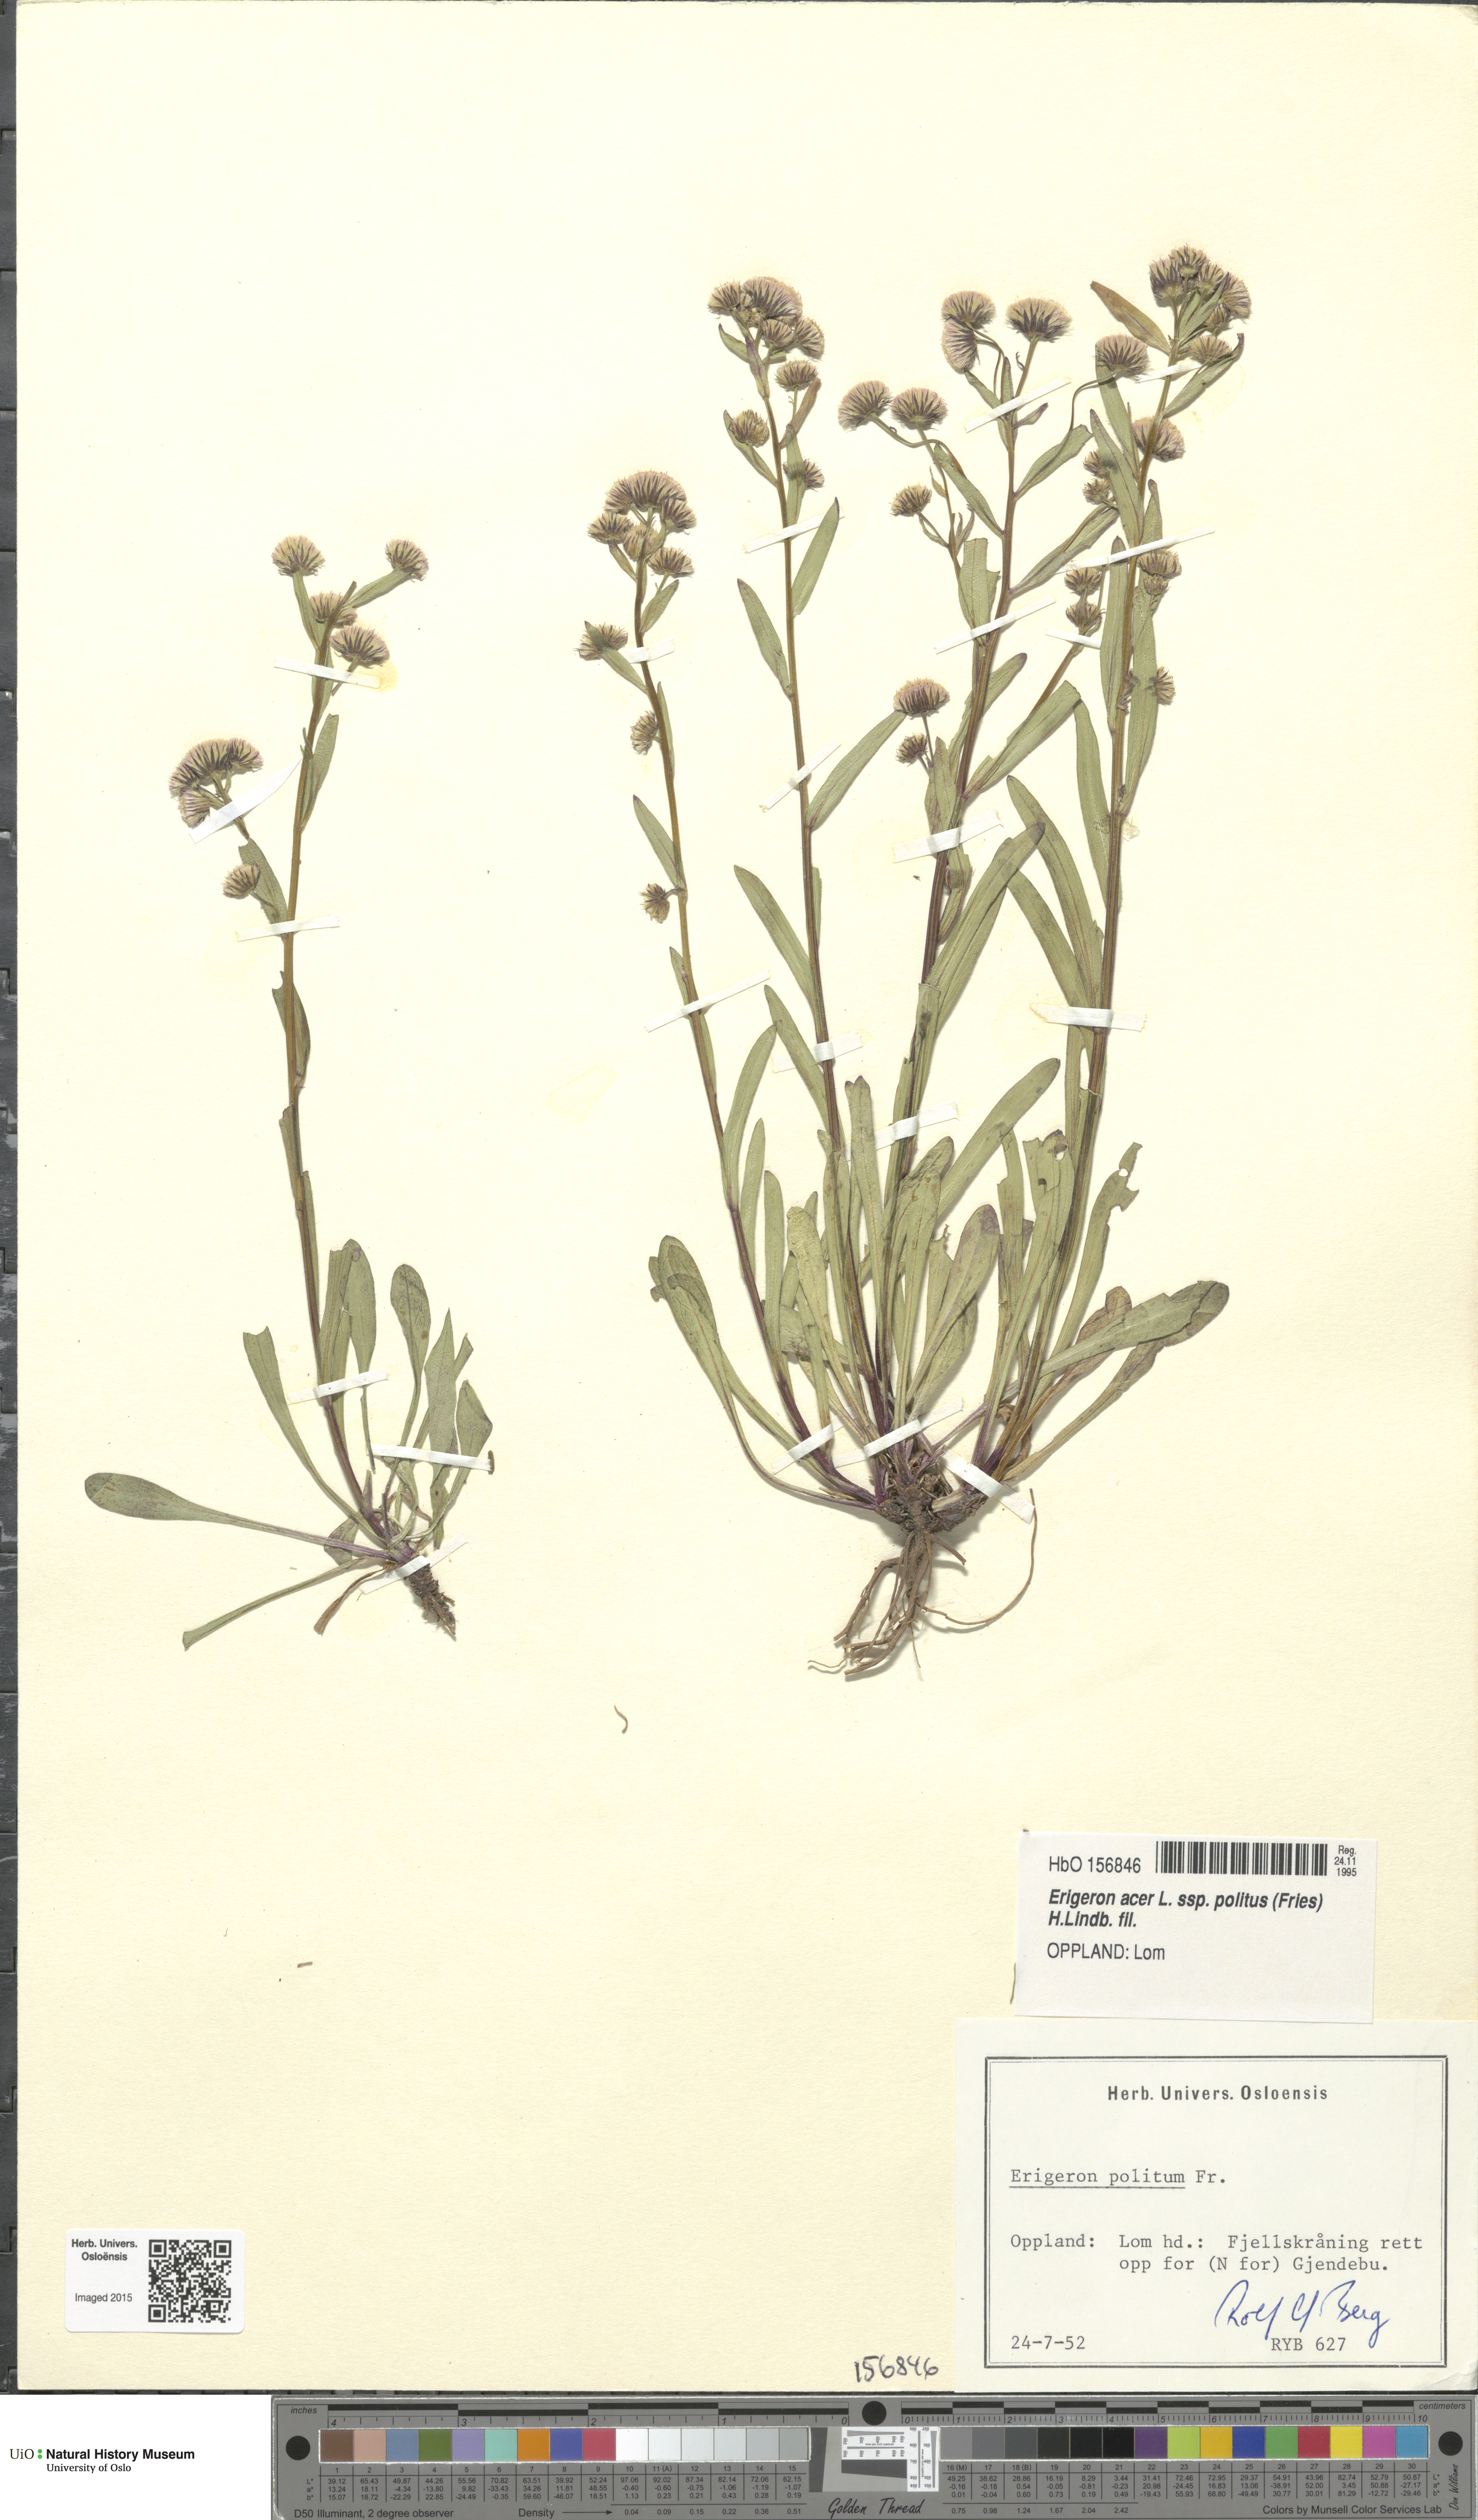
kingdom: Plantae
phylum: Tracheophyta
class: Magnoliopsida
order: Asterales
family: Asteraceae
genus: Erigeron
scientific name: Erigeron politus
